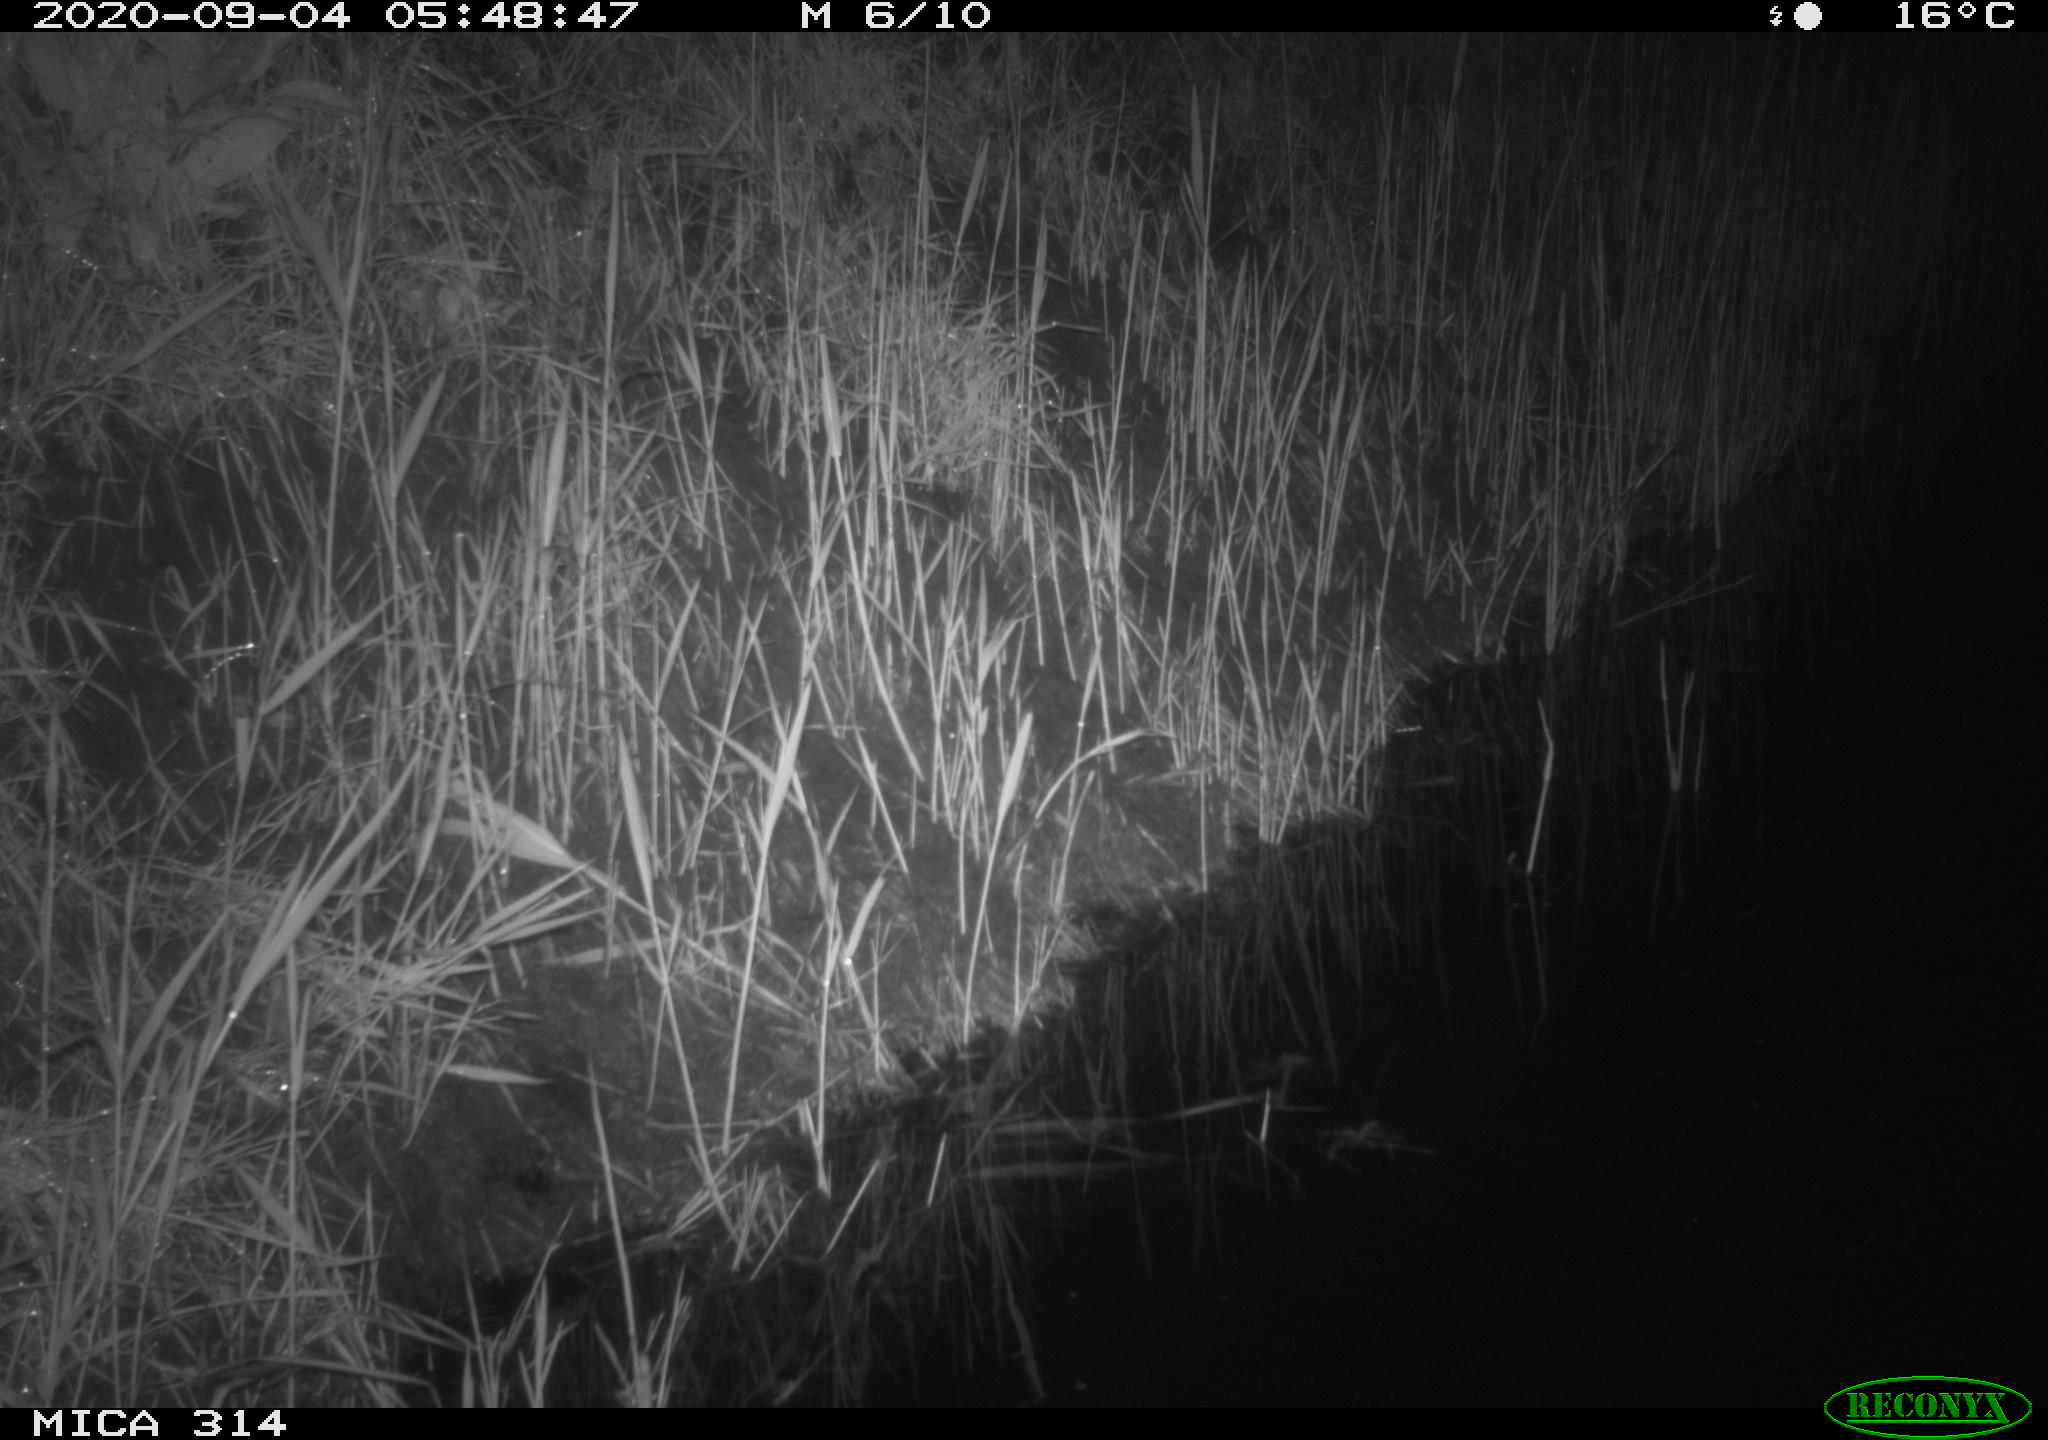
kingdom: Animalia
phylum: Chordata
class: Mammalia
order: Rodentia
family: Muridae
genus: Rattus
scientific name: Rattus norvegicus
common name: Brown rat
